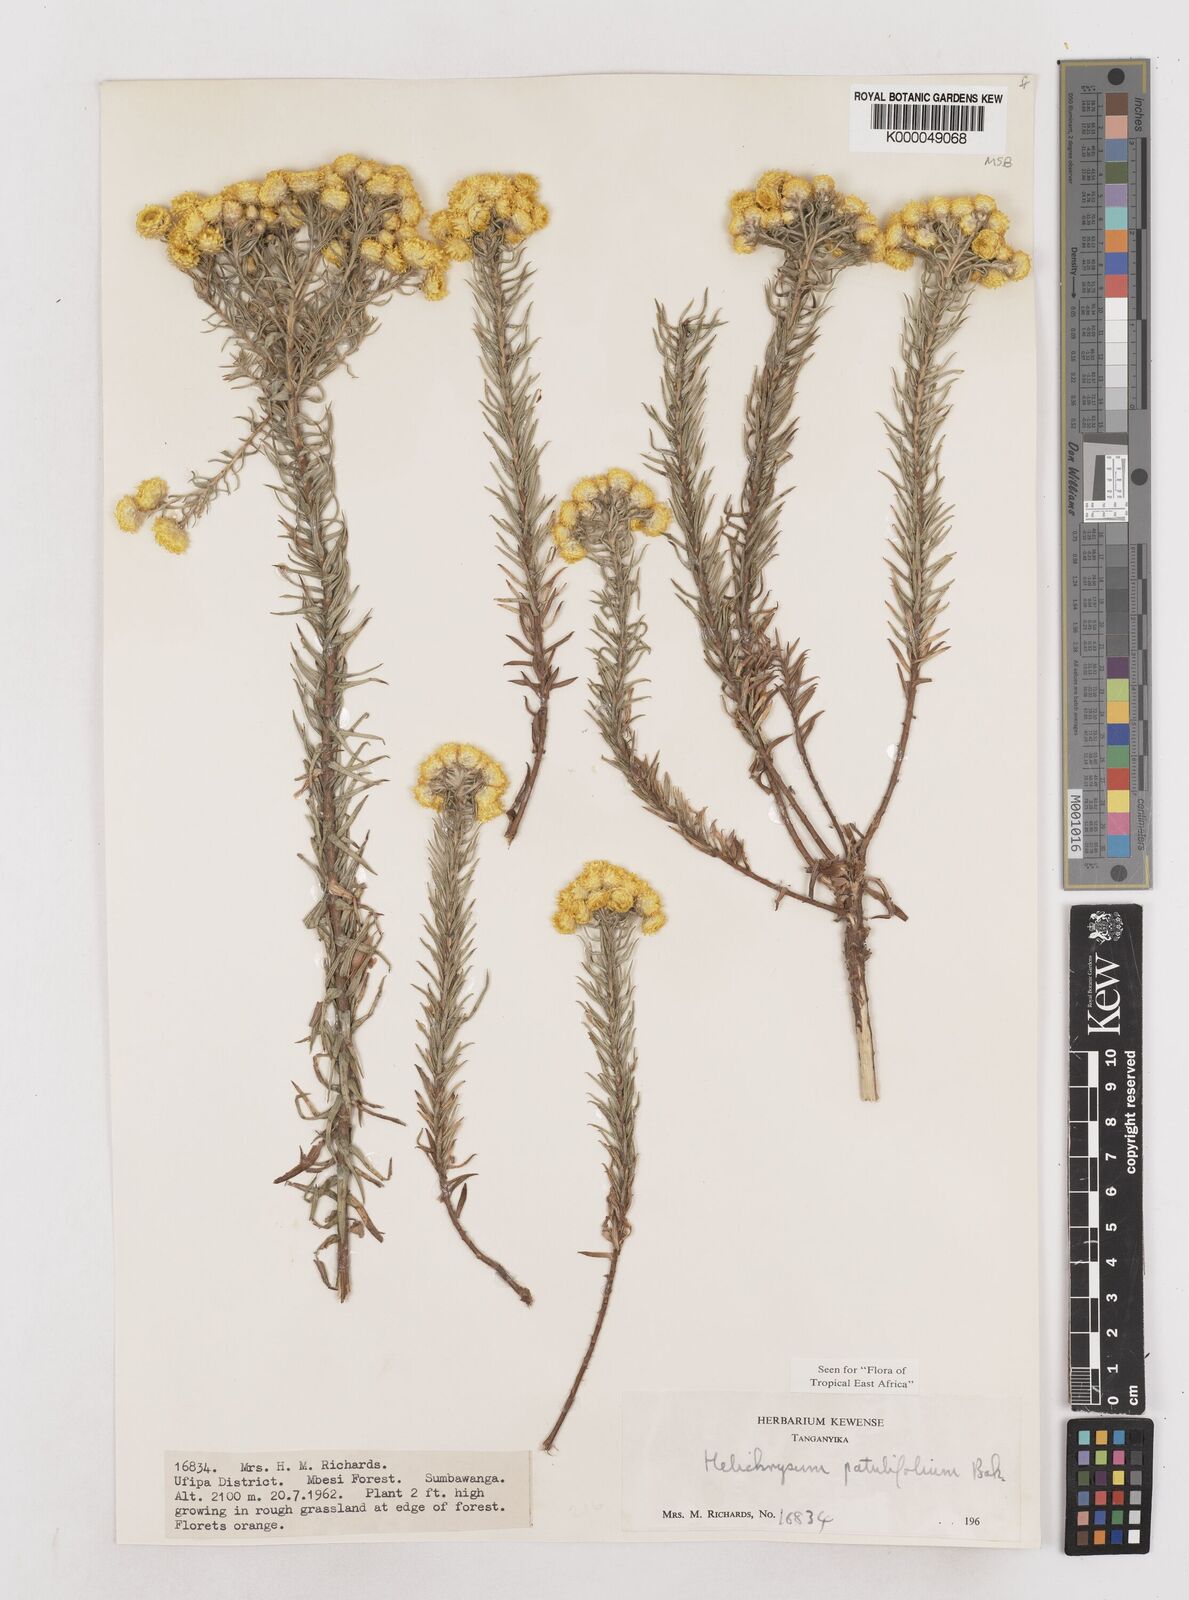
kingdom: Plantae
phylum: Tracheophyta
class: Magnoliopsida
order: Asterales
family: Asteraceae
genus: Helichrysum
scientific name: Helichrysum patulifolium
